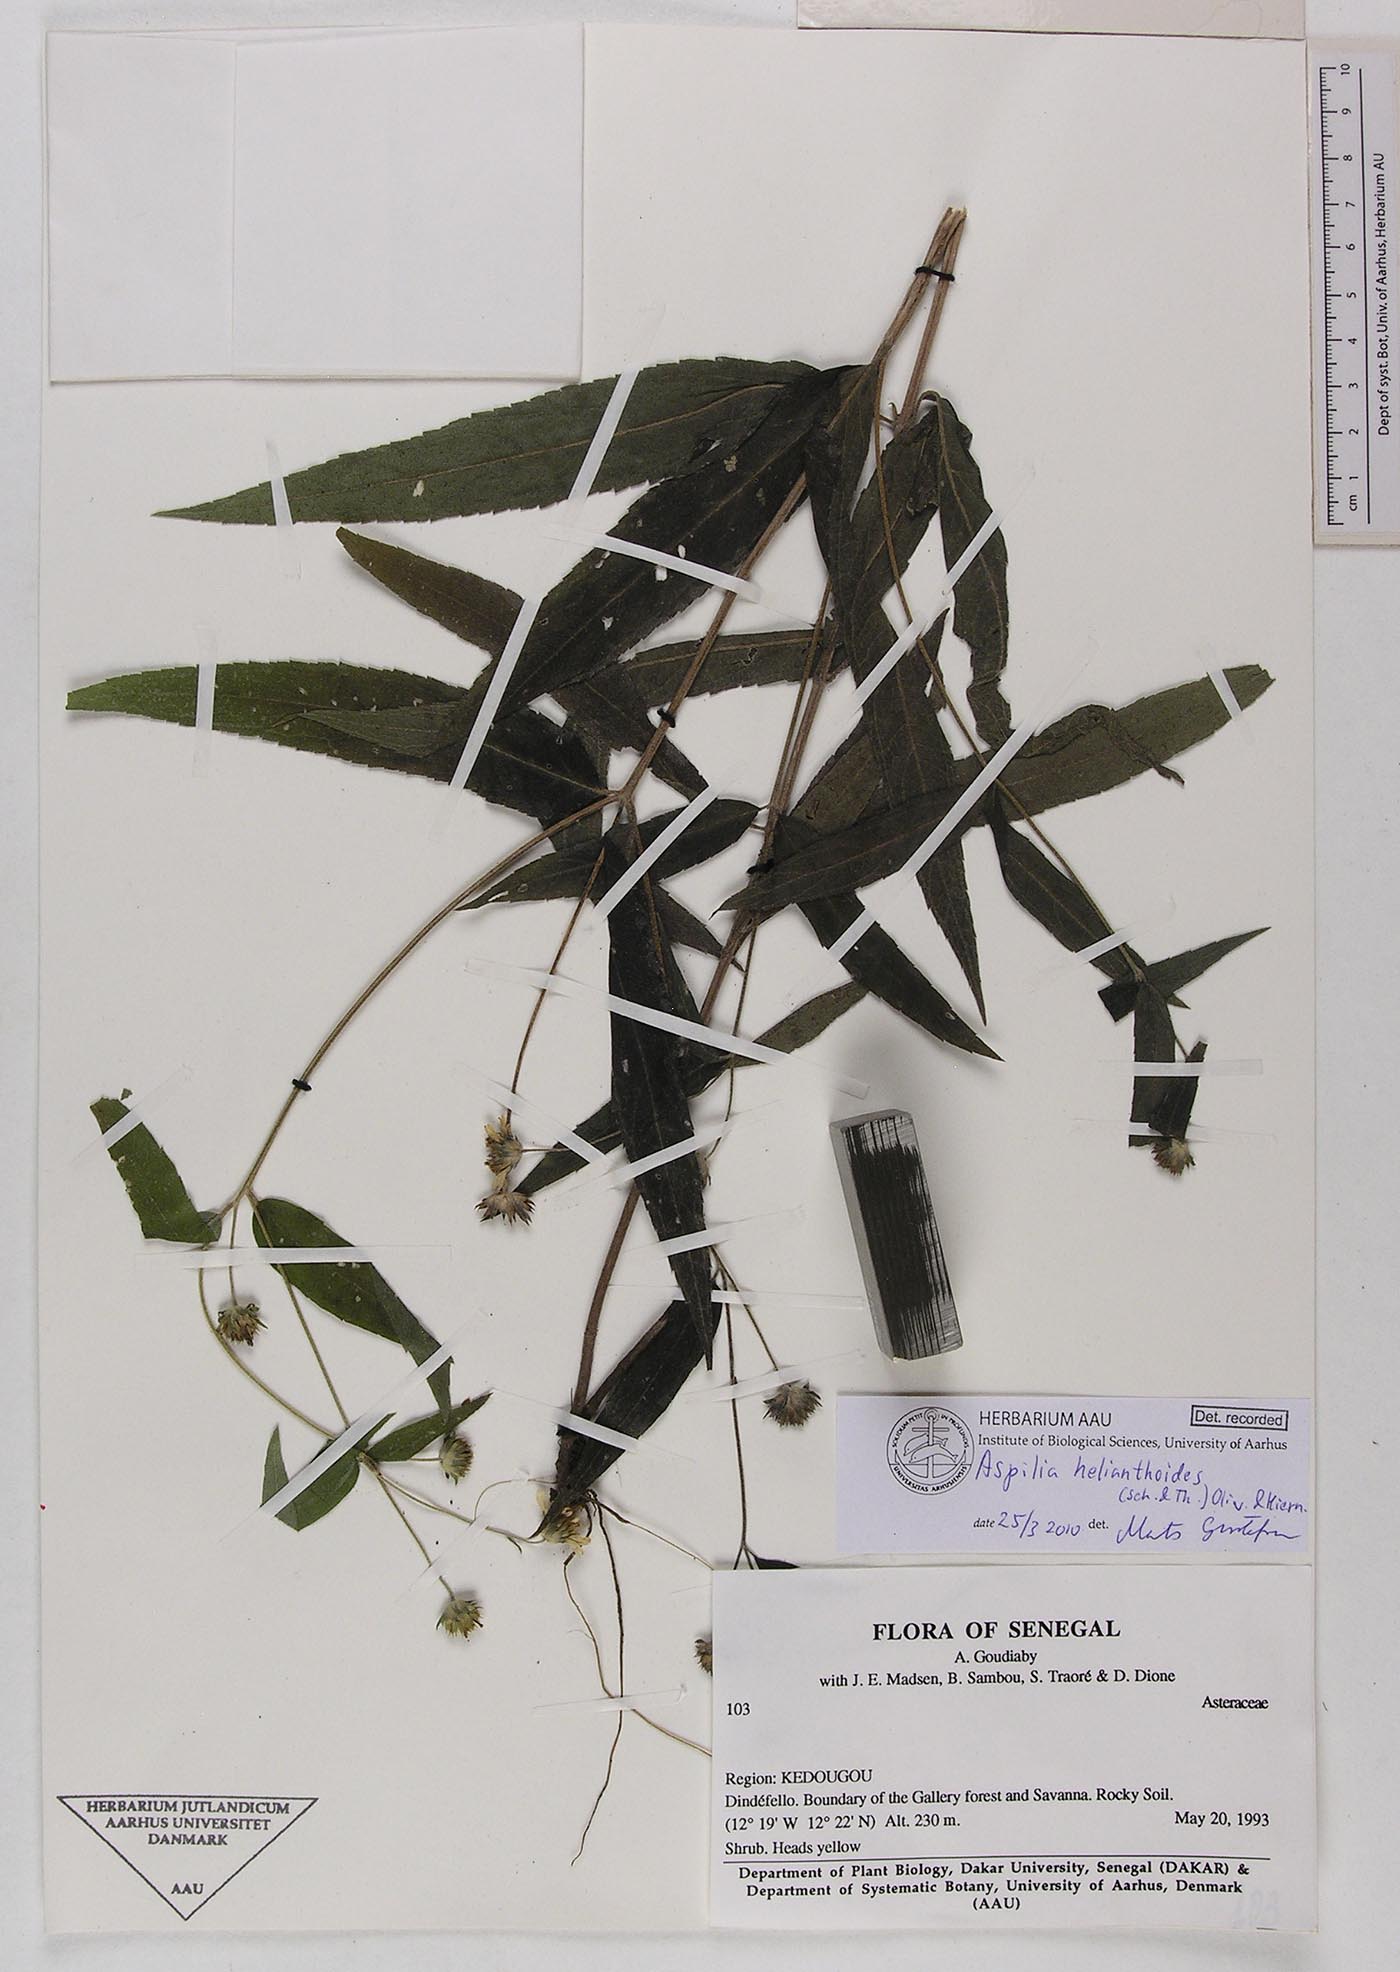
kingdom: Plantae
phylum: Tracheophyta
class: Magnoliopsida
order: Asterales
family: Asteraceae
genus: Aspilia
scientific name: Aspilia helianthoides
